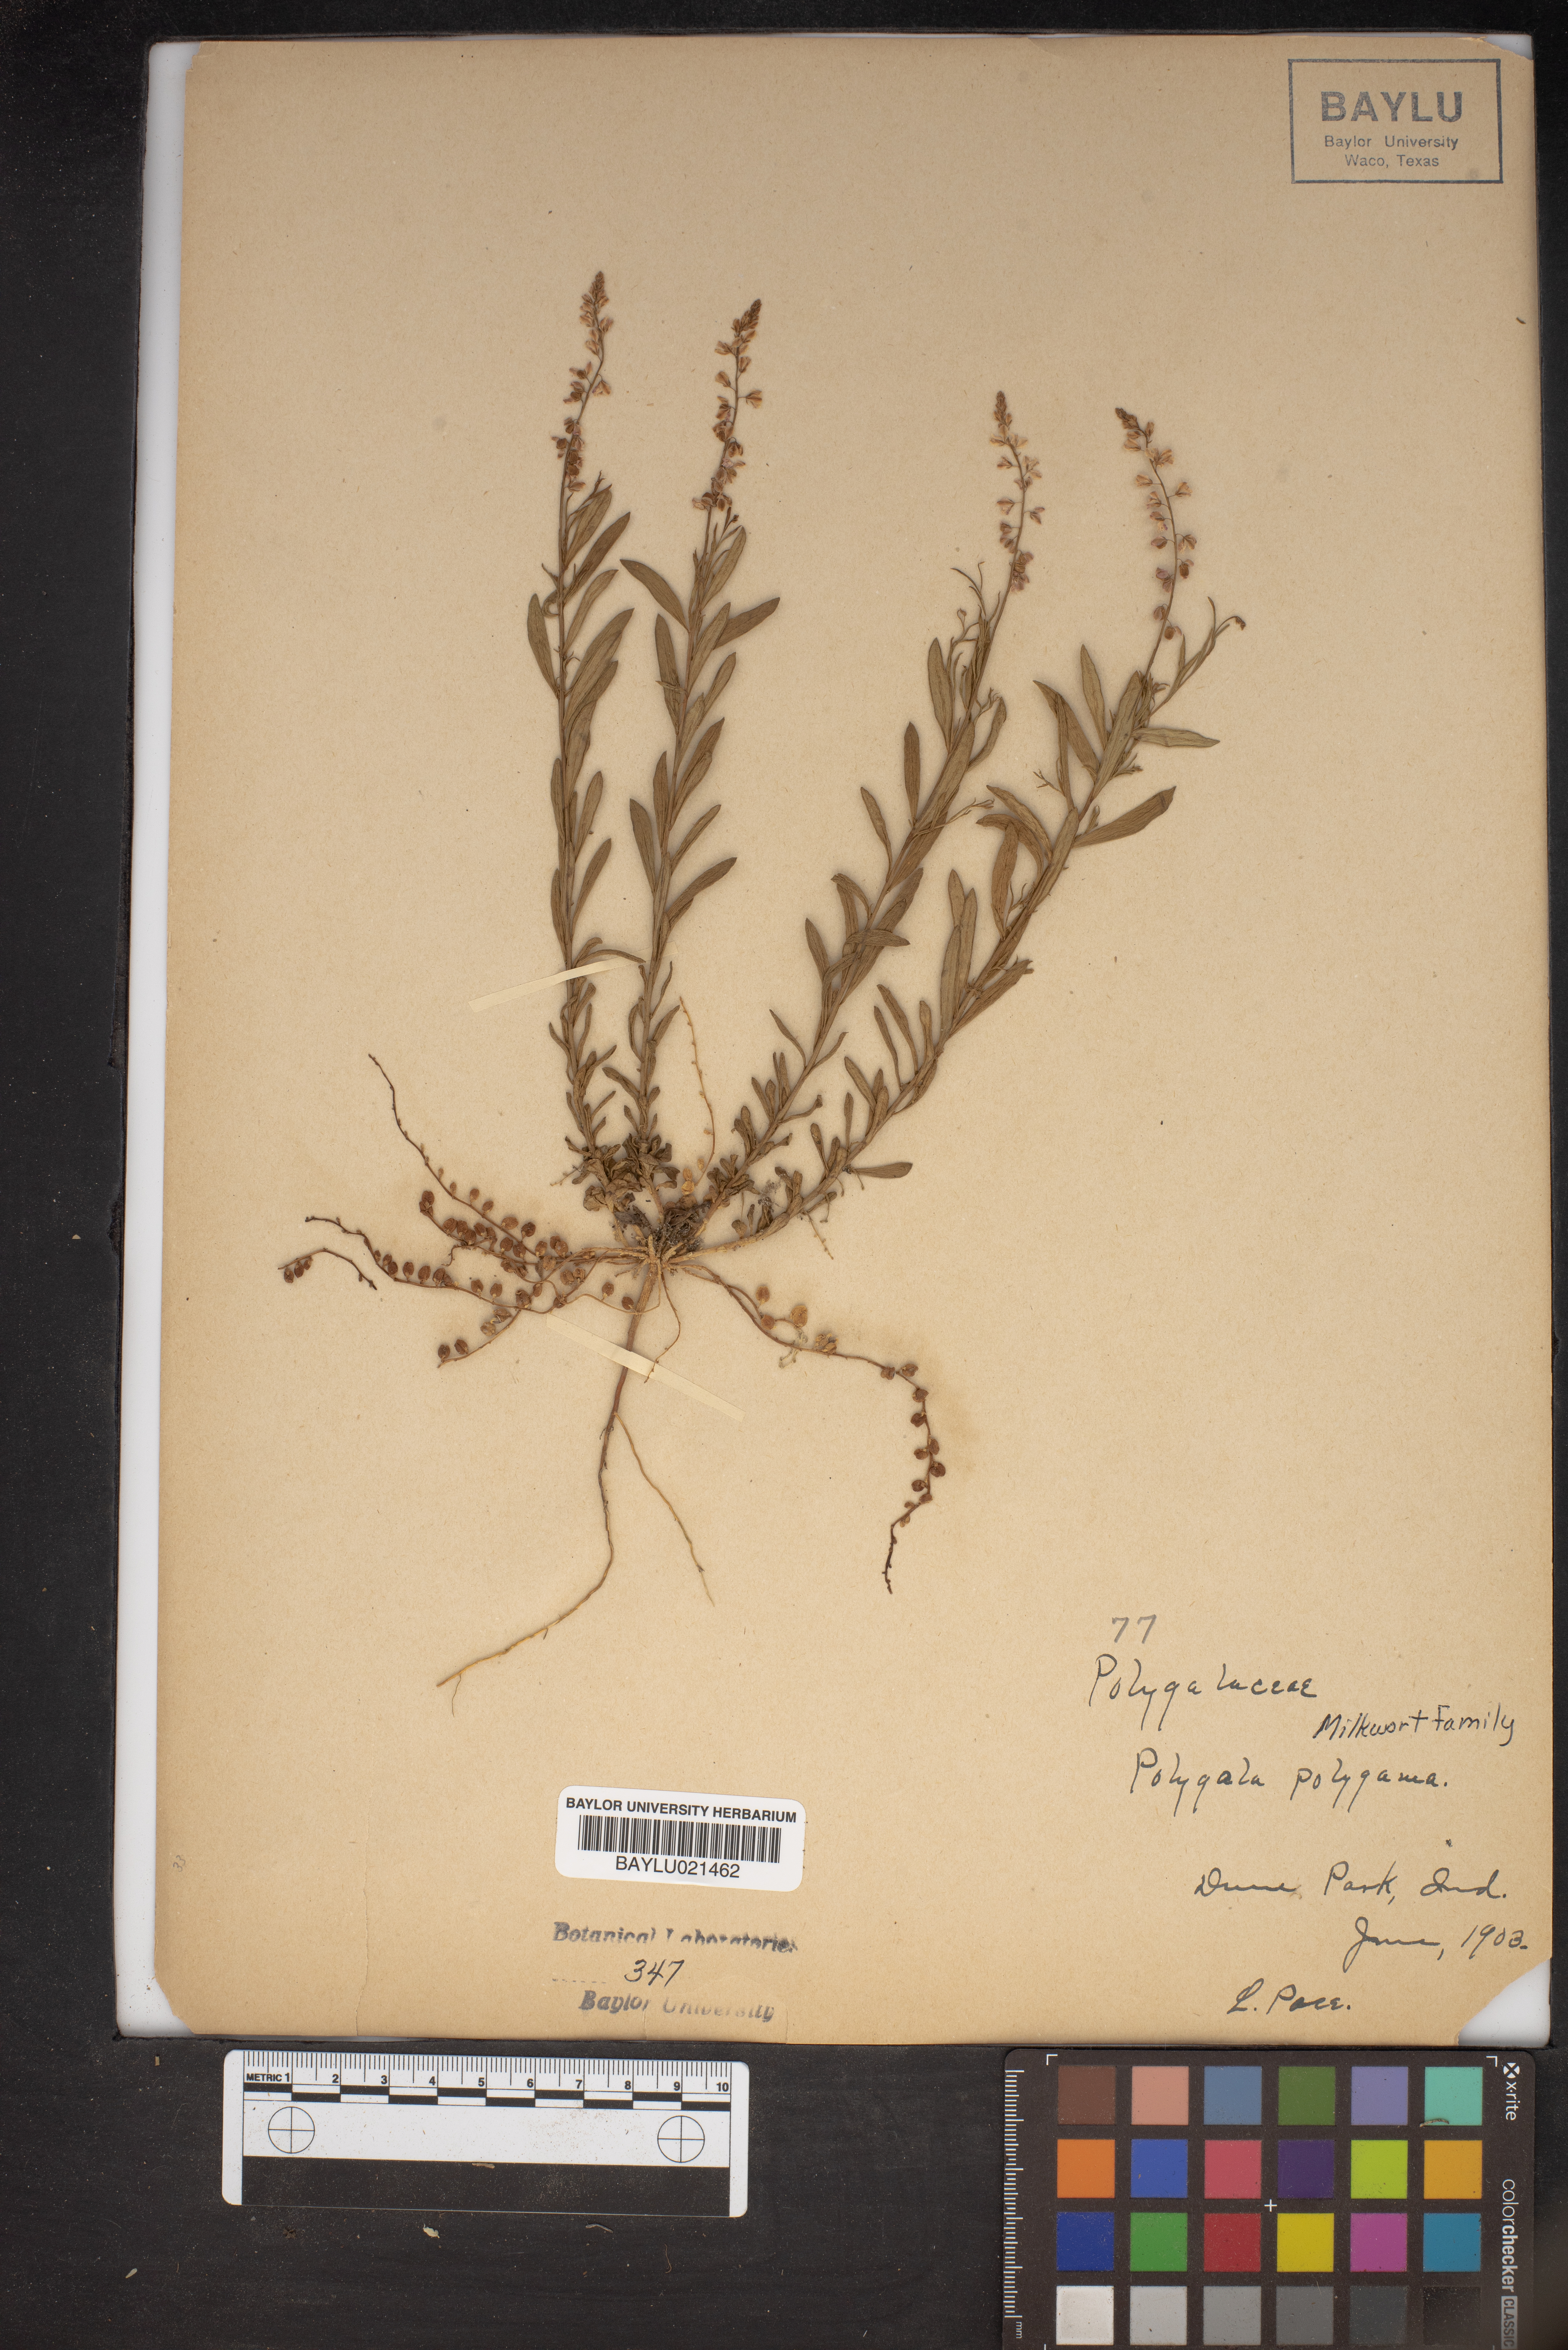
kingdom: Plantae
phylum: Tracheophyta
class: Magnoliopsida
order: Fabales
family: Polygalaceae
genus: Polygala
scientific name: Polygala polygama
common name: Bitter milkwort
